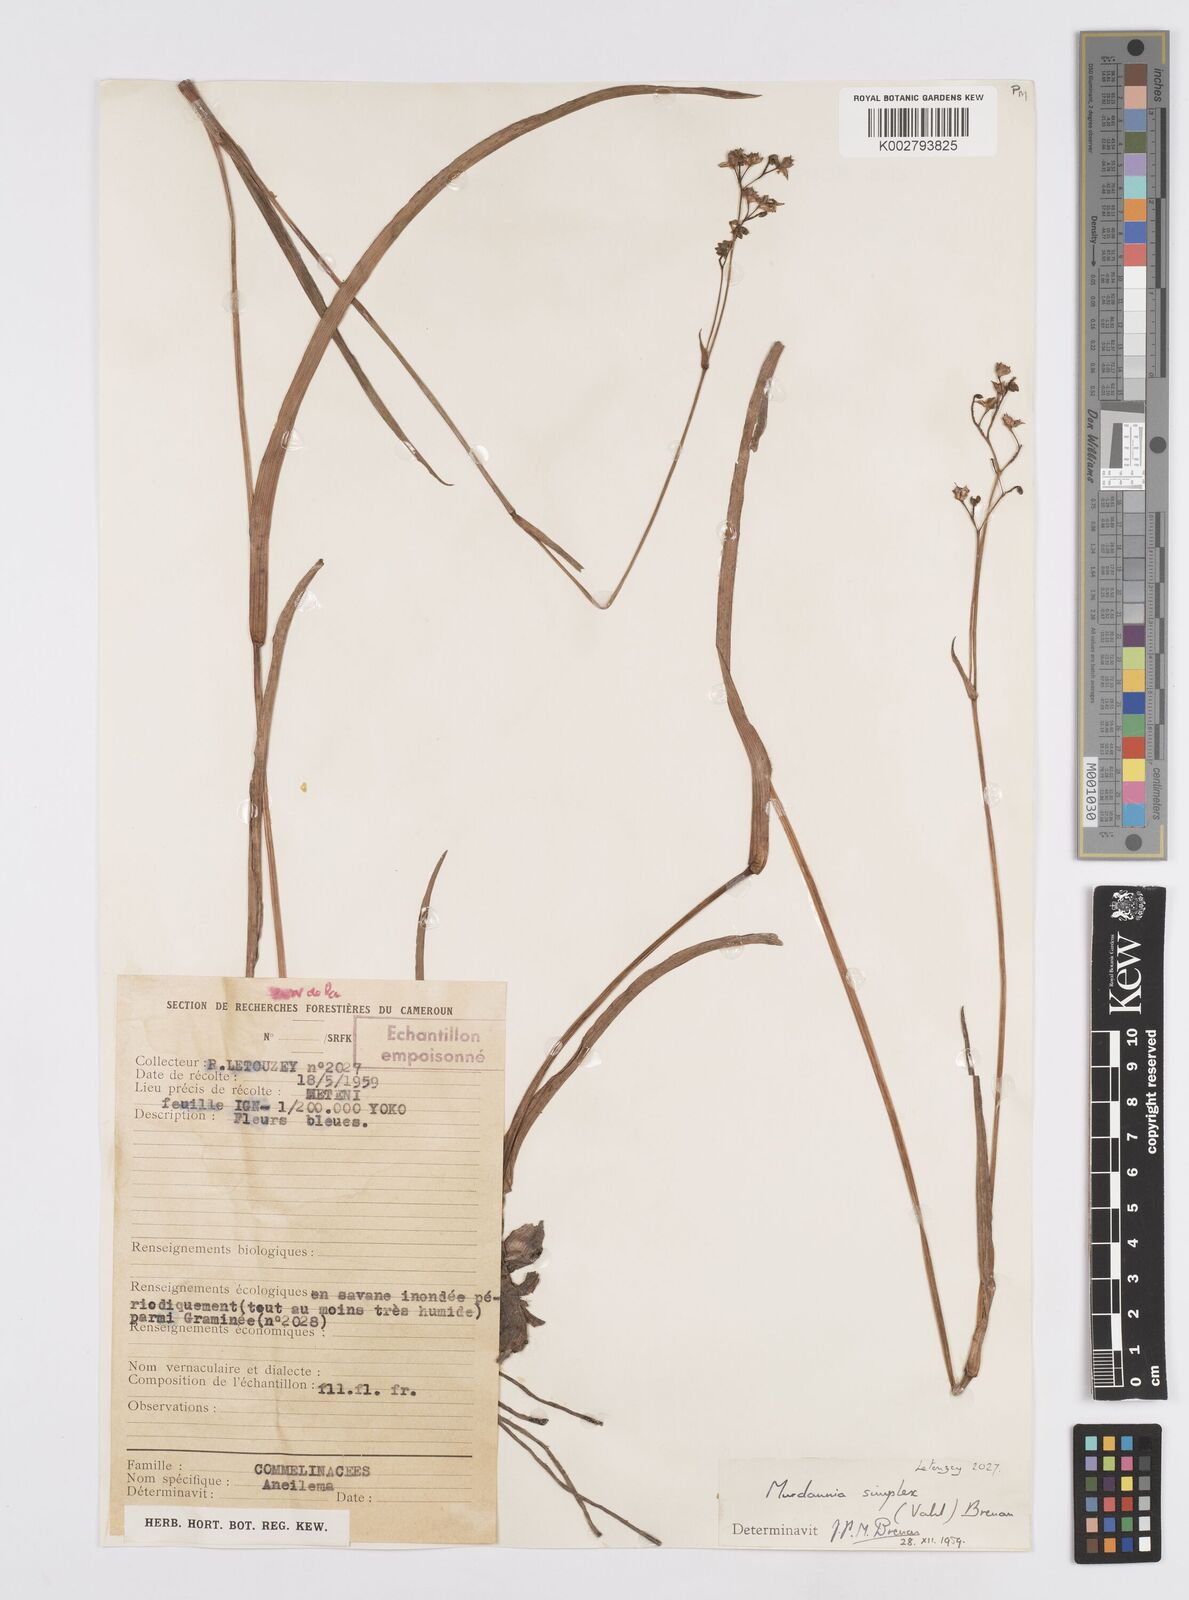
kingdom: Plantae
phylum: Tracheophyta
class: Liliopsida
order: Commelinales
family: Commelinaceae
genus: Murdannia
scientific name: Murdannia simplex
